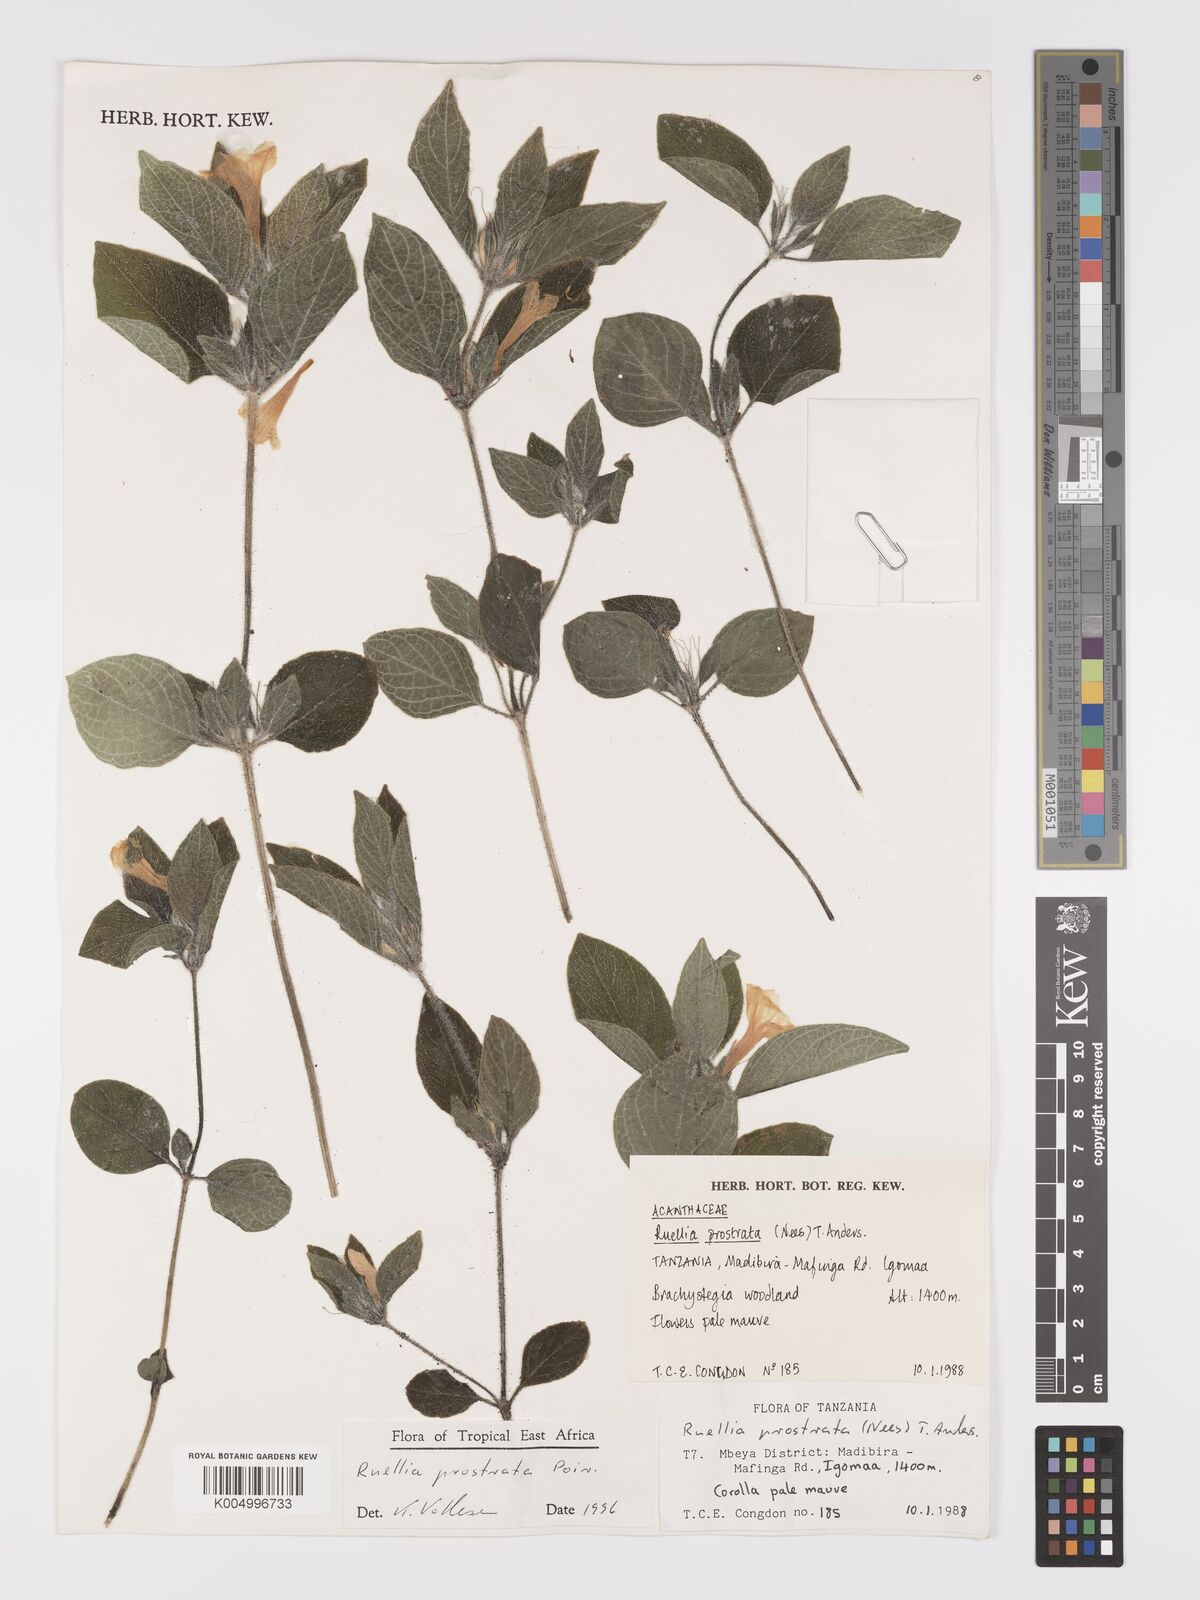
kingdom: Plantae
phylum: Tracheophyta
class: Magnoliopsida
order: Lamiales
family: Acanthaceae
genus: Ruellia
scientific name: Ruellia
